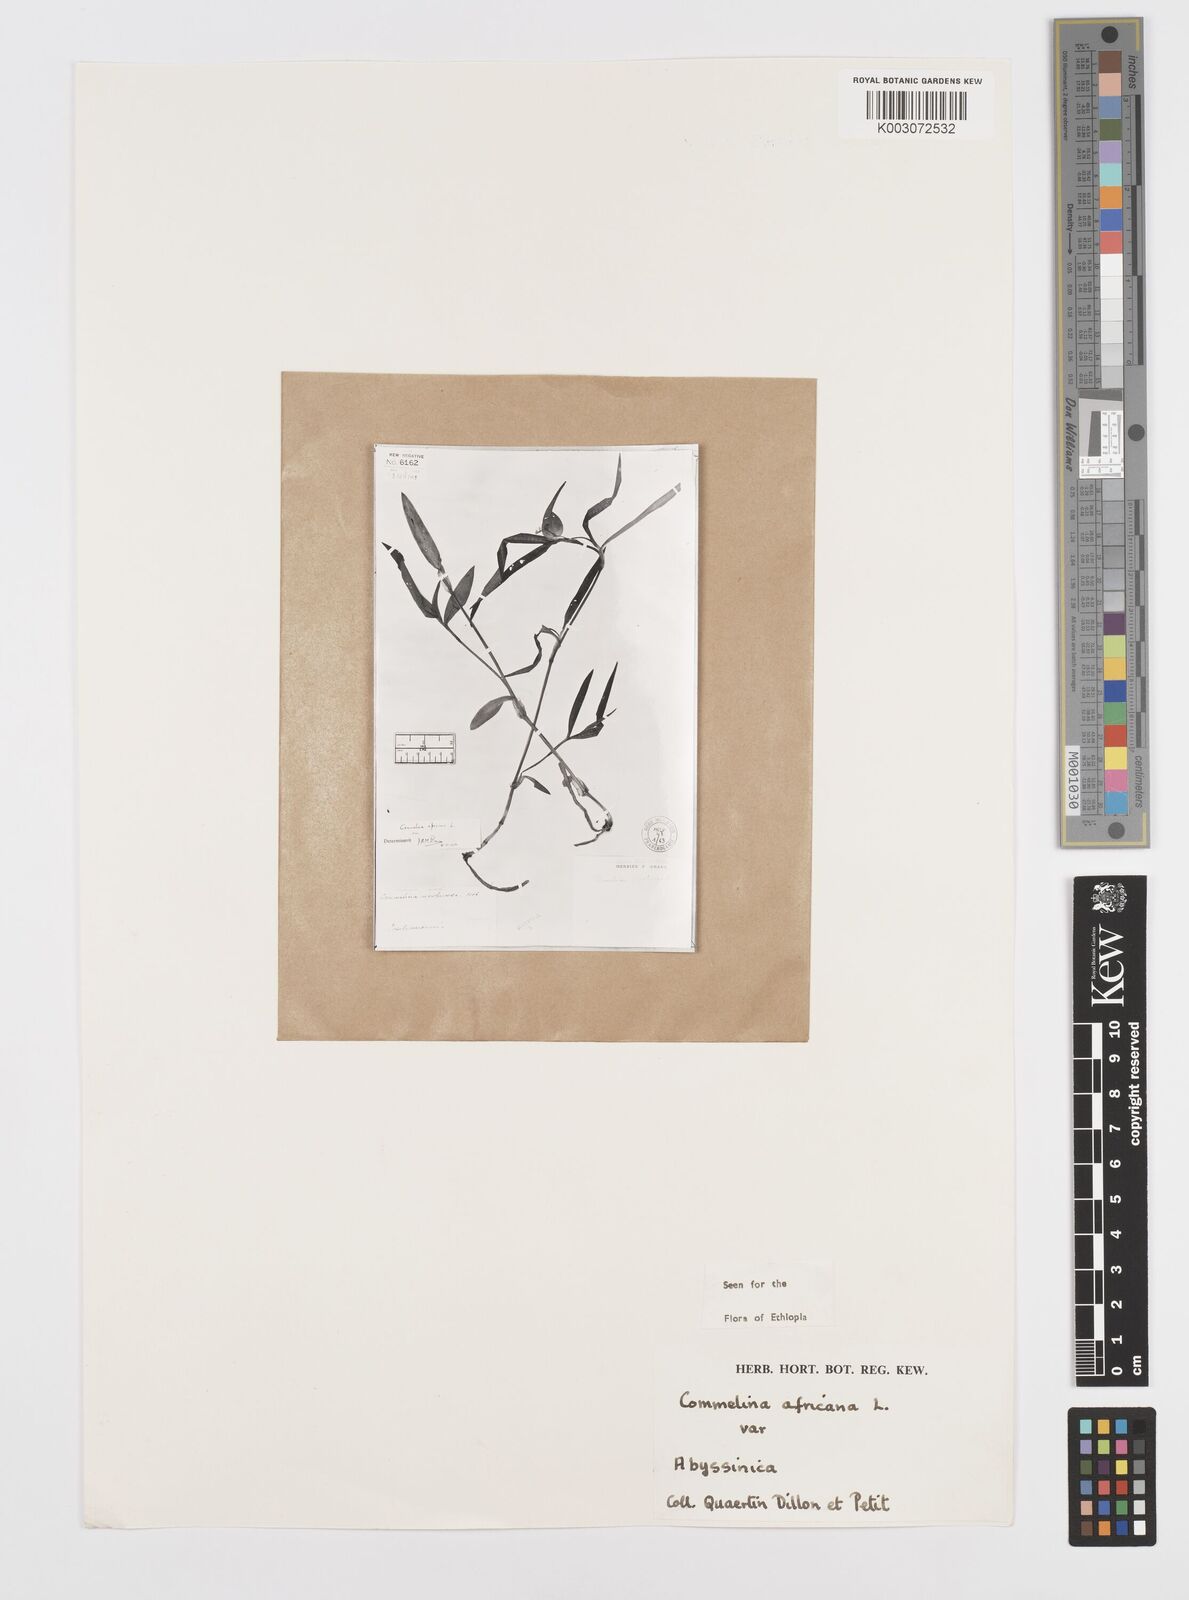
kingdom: Plantae
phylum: Tracheophyta
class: Liliopsida
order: Commelinales
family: Commelinaceae
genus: Commelina
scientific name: Commelina africana
